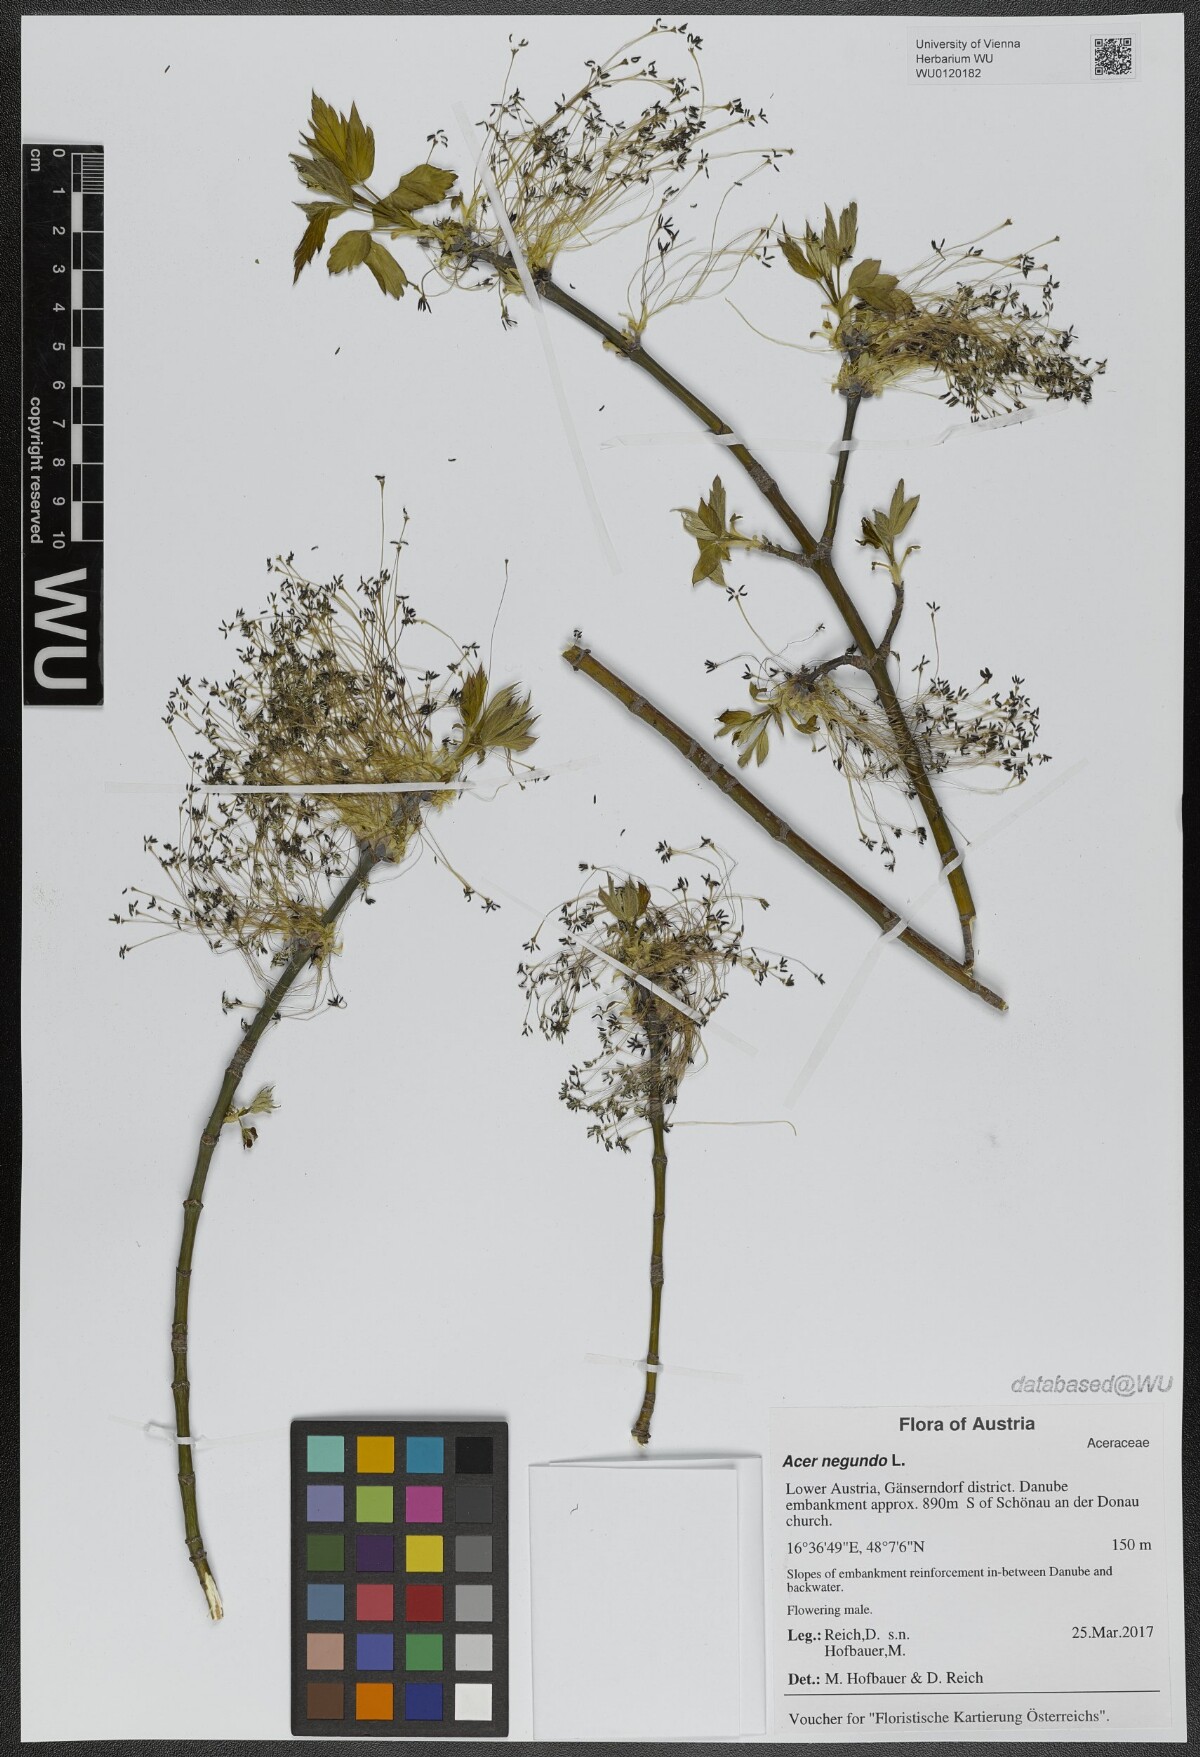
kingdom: Plantae
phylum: Tracheophyta
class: Magnoliopsida
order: Sapindales
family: Sapindaceae
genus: Acer
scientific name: Acer negundo
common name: Ashleaf maple
